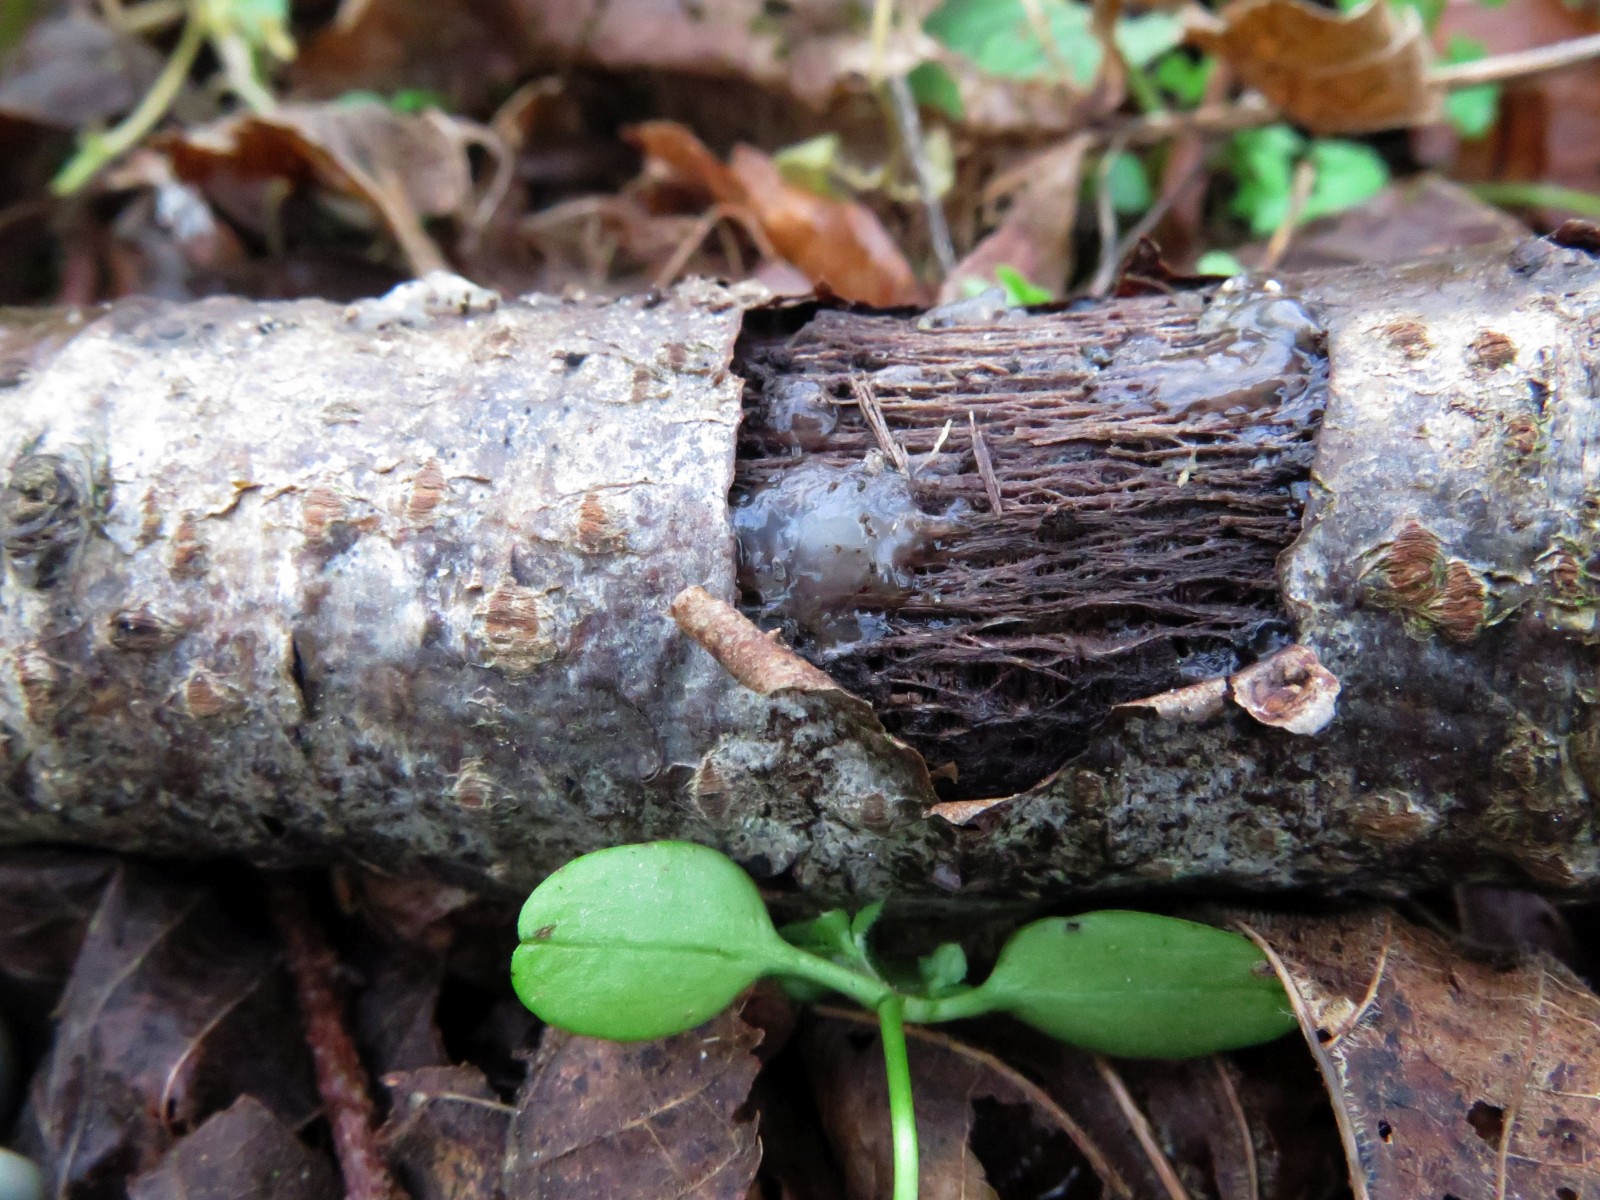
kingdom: Fungi
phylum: Basidiomycota
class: Agaricomycetes
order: Auriculariales
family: Hyaloriaceae
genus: Myxarium
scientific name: Myxarium nucleatum
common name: klar bævretop
